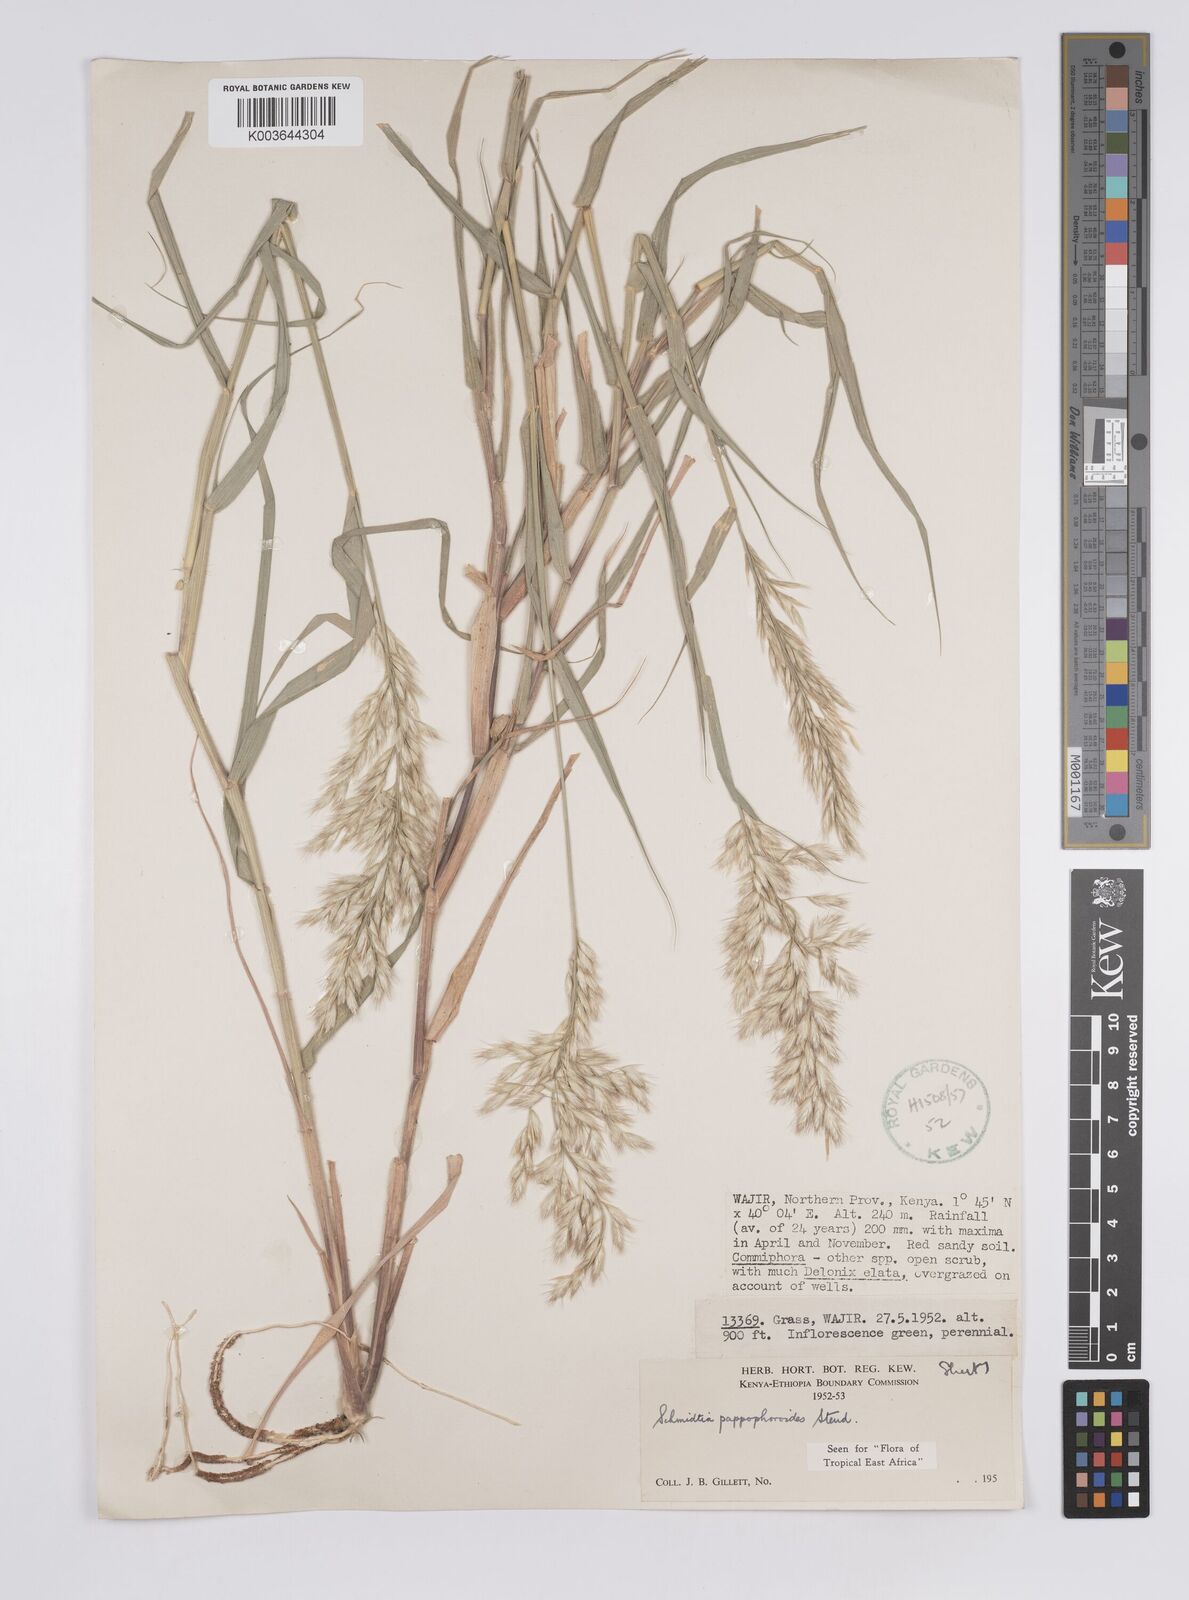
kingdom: Plantae
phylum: Tracheophyta
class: Liliopsida
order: Poales
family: Poaceae
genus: Schmidtia
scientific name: Schmidtia pappophoroides
